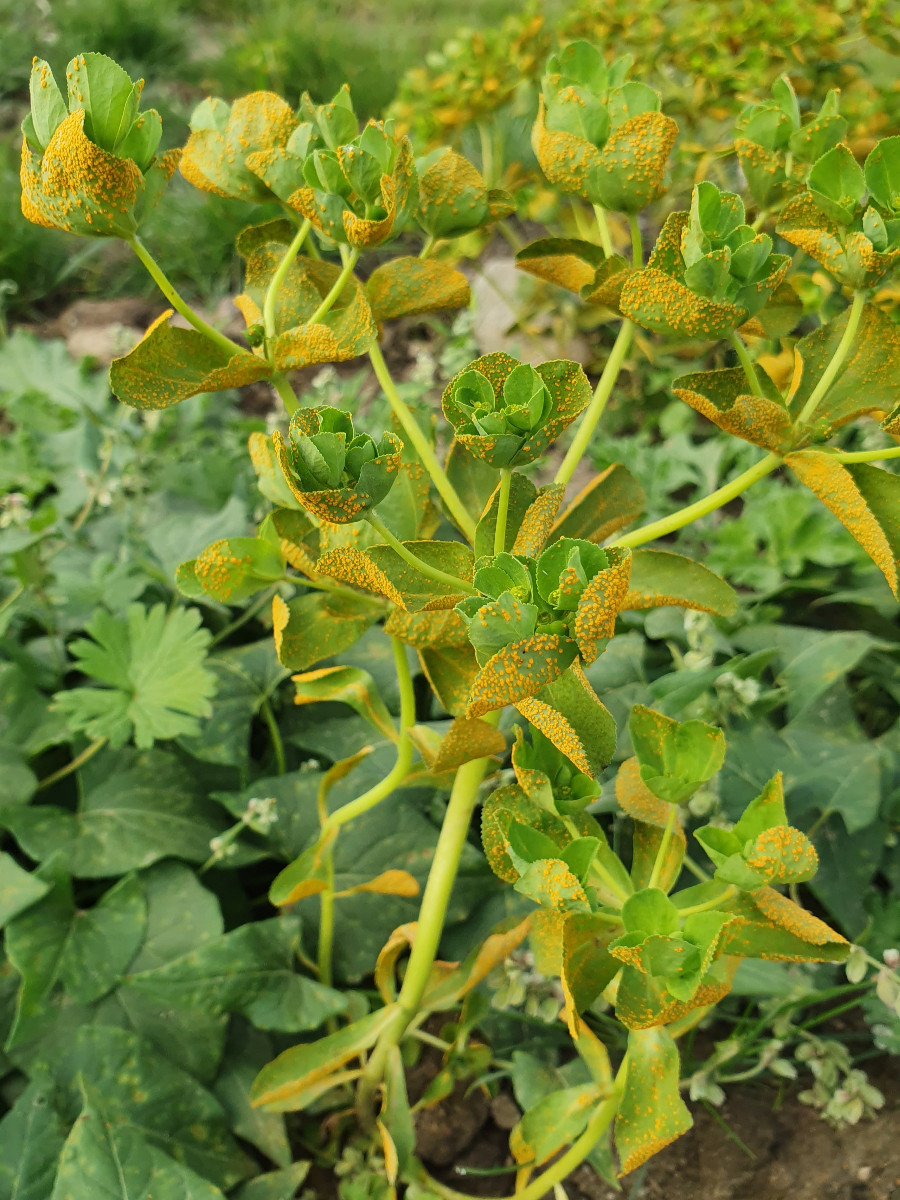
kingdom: Fungi
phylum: Basidiomycota
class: Pucciniomycetes
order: Pucciniales
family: Melampsoraceae
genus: Melampsora
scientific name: Melampsora euphorbiae
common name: vortemælk-skorperust
